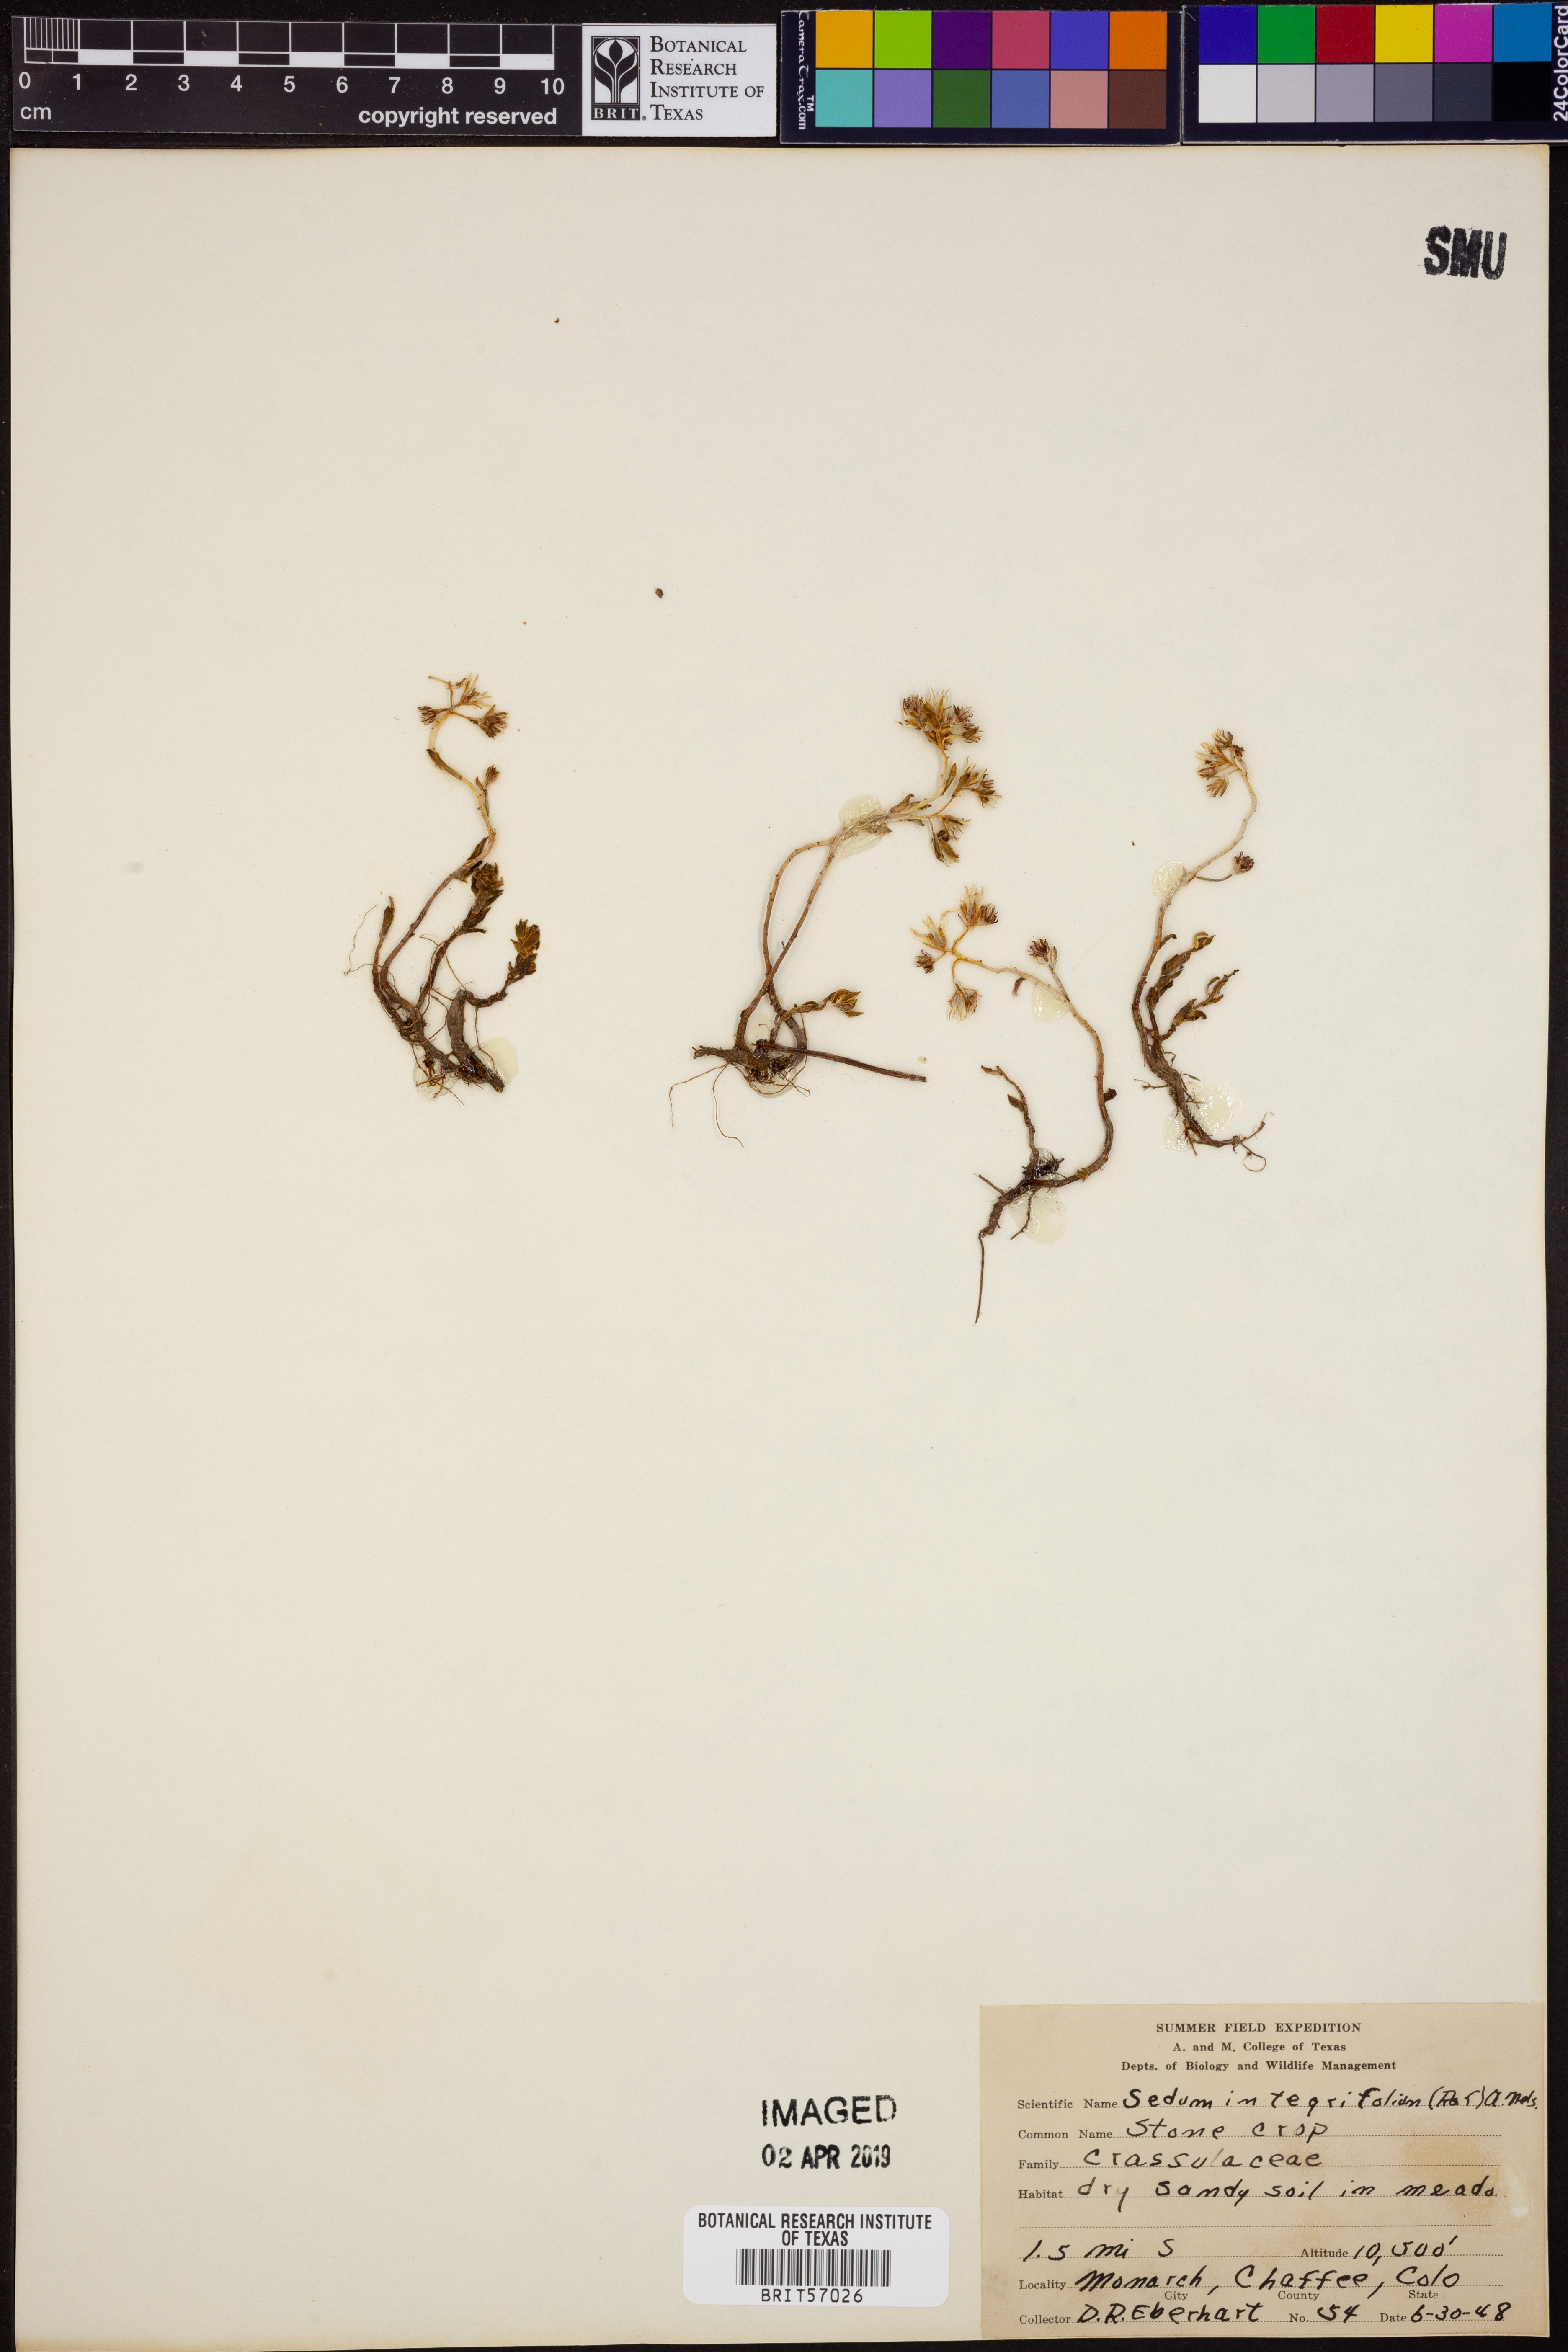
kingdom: Plantae
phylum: Tracheophyta
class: Magnoliopsida
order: Saxifragales
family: Crassulaceae
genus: Rhodiola
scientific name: Rhodiola integrifolia
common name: Western roseroot
